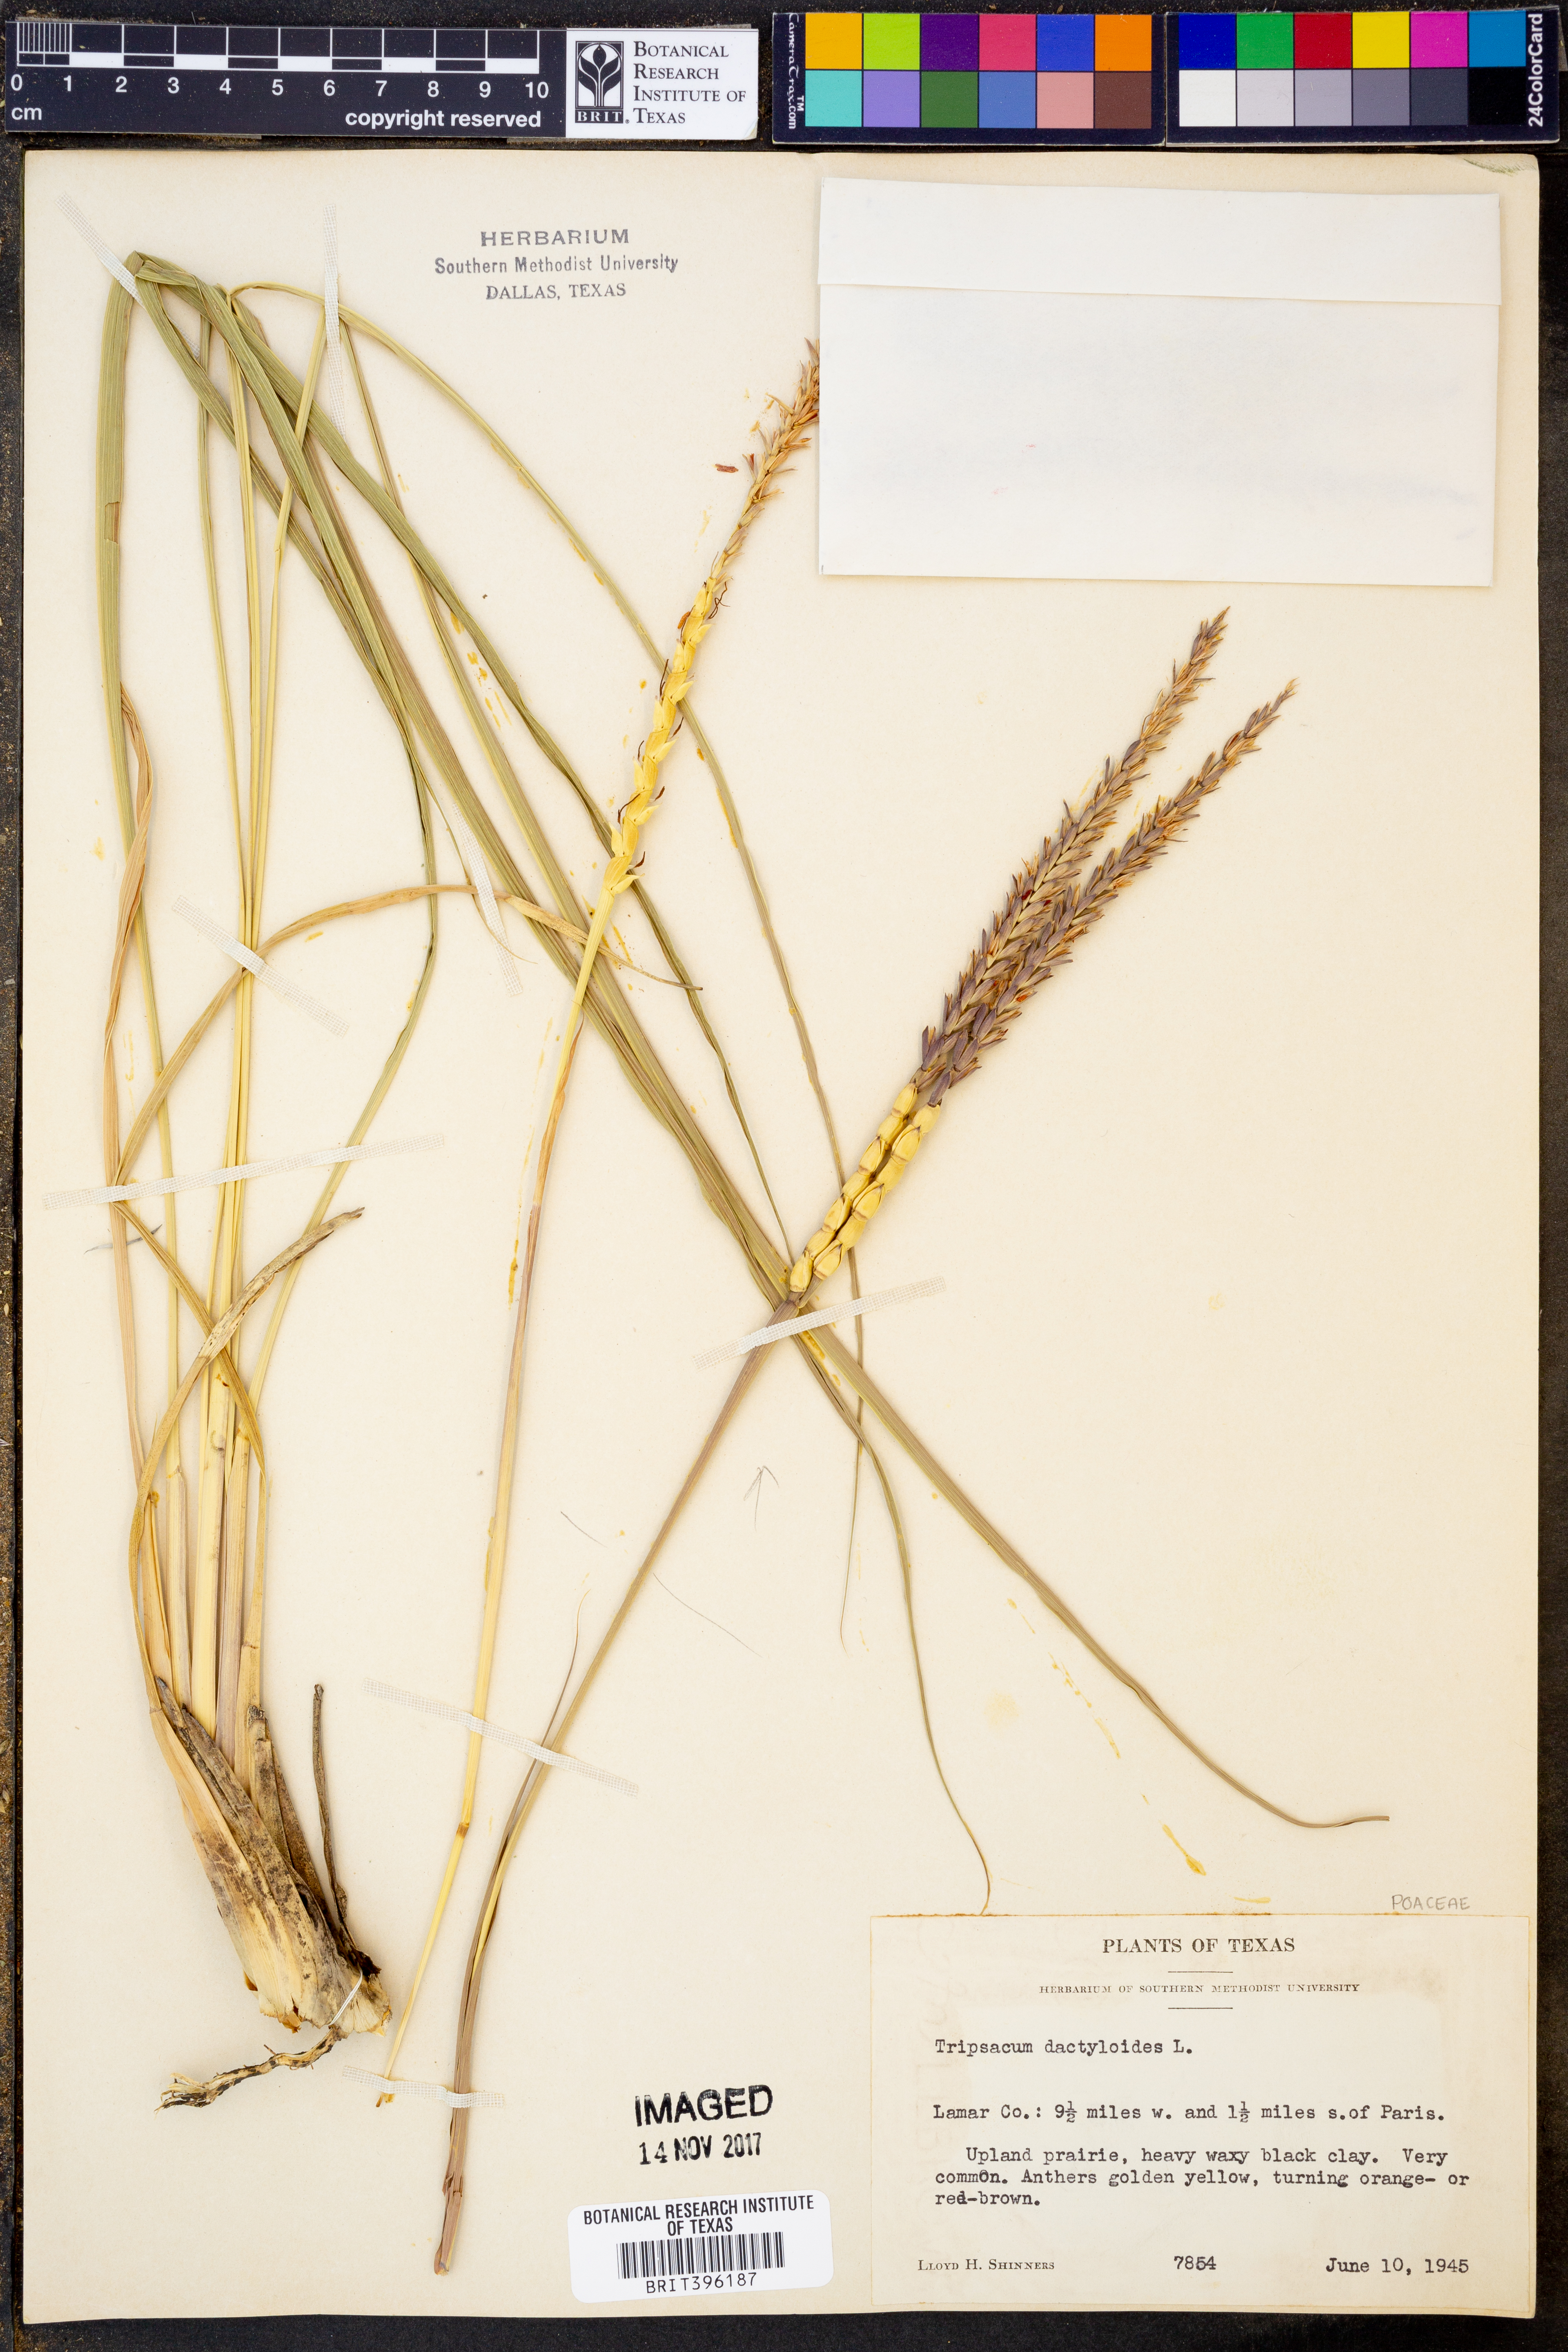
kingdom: Plantae
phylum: Tracheophyta
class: Liliopsida
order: Poales
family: Poaceae
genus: Tripsacum
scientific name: Tripsacum dactyloides
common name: Buffalo-grass
